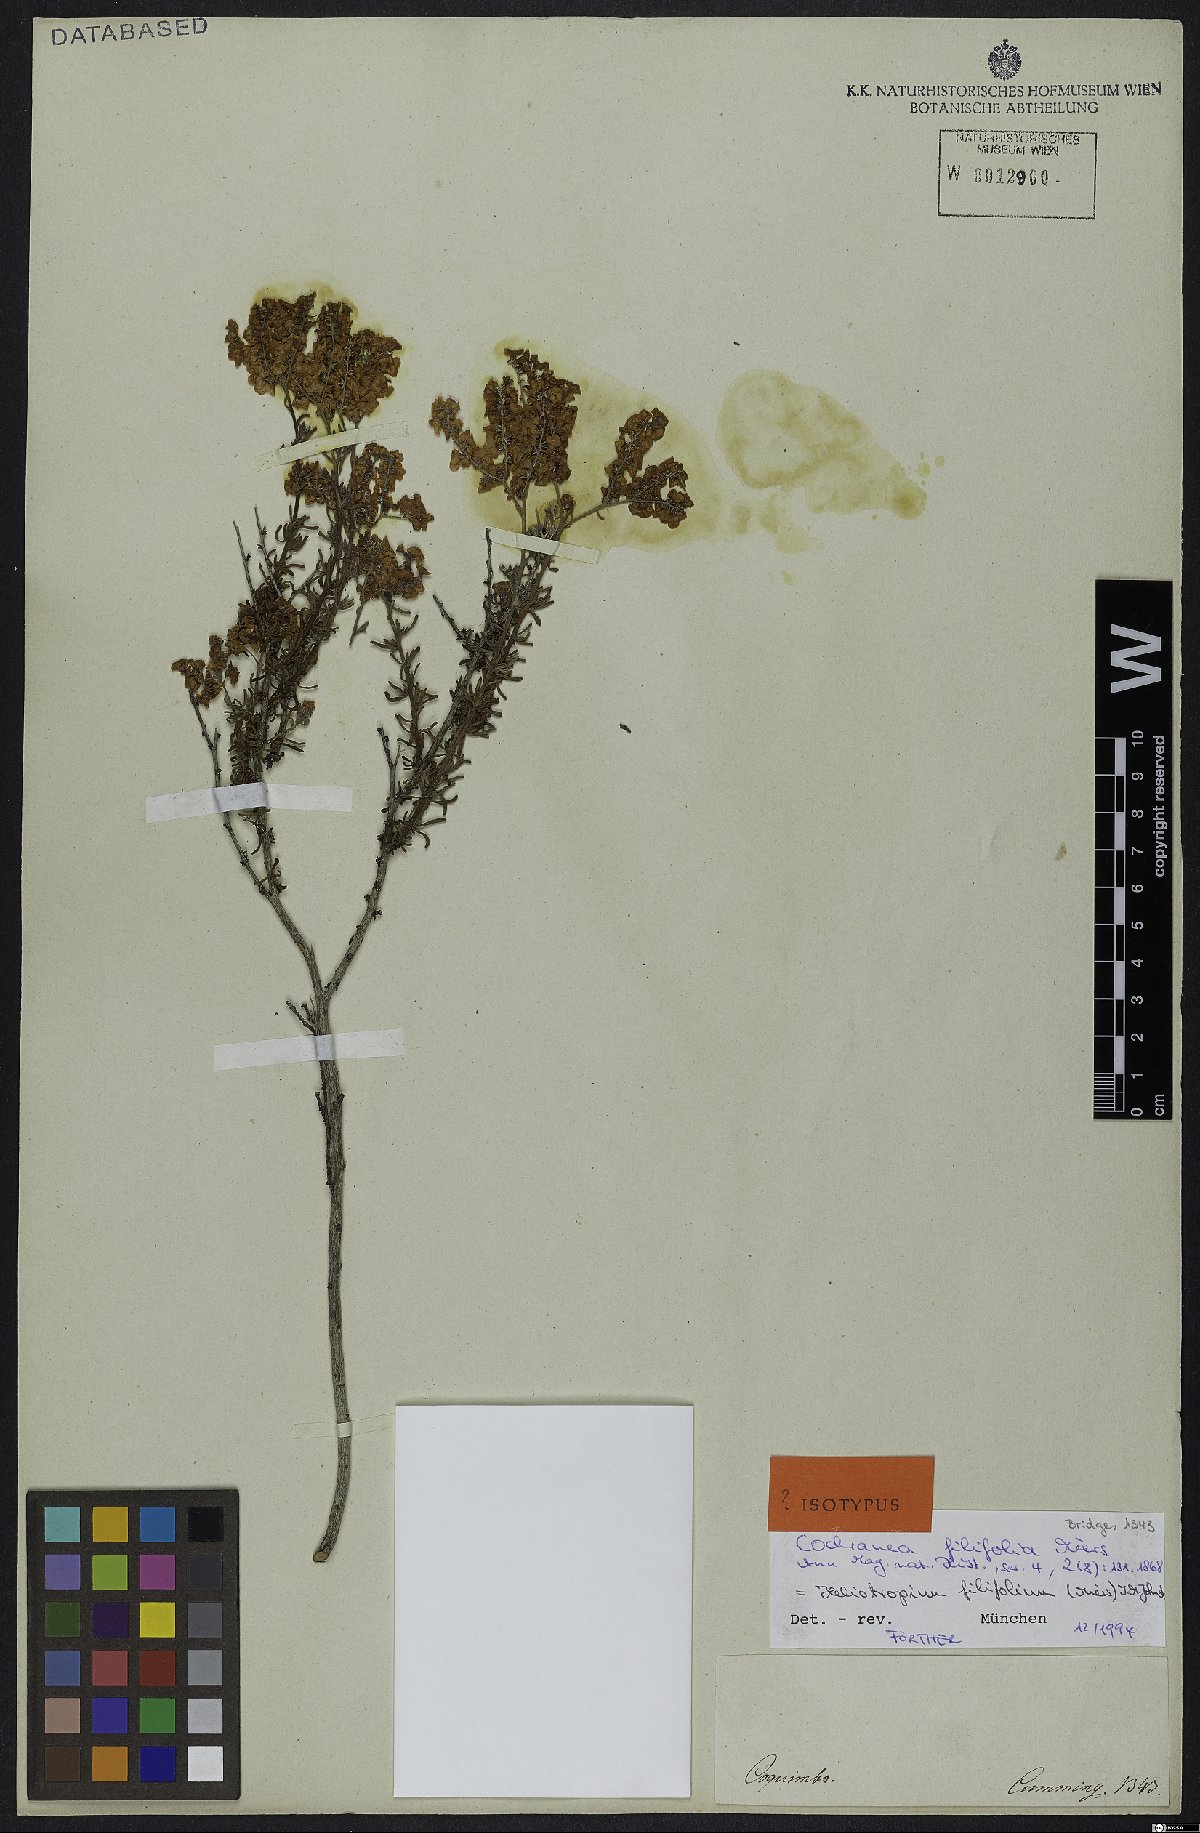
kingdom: Plantae
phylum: Tracheophyta
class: Magnoliopsida
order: Boraginales
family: Heliotropiaceae
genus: Heliotropium
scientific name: Heliotropium filifolium
